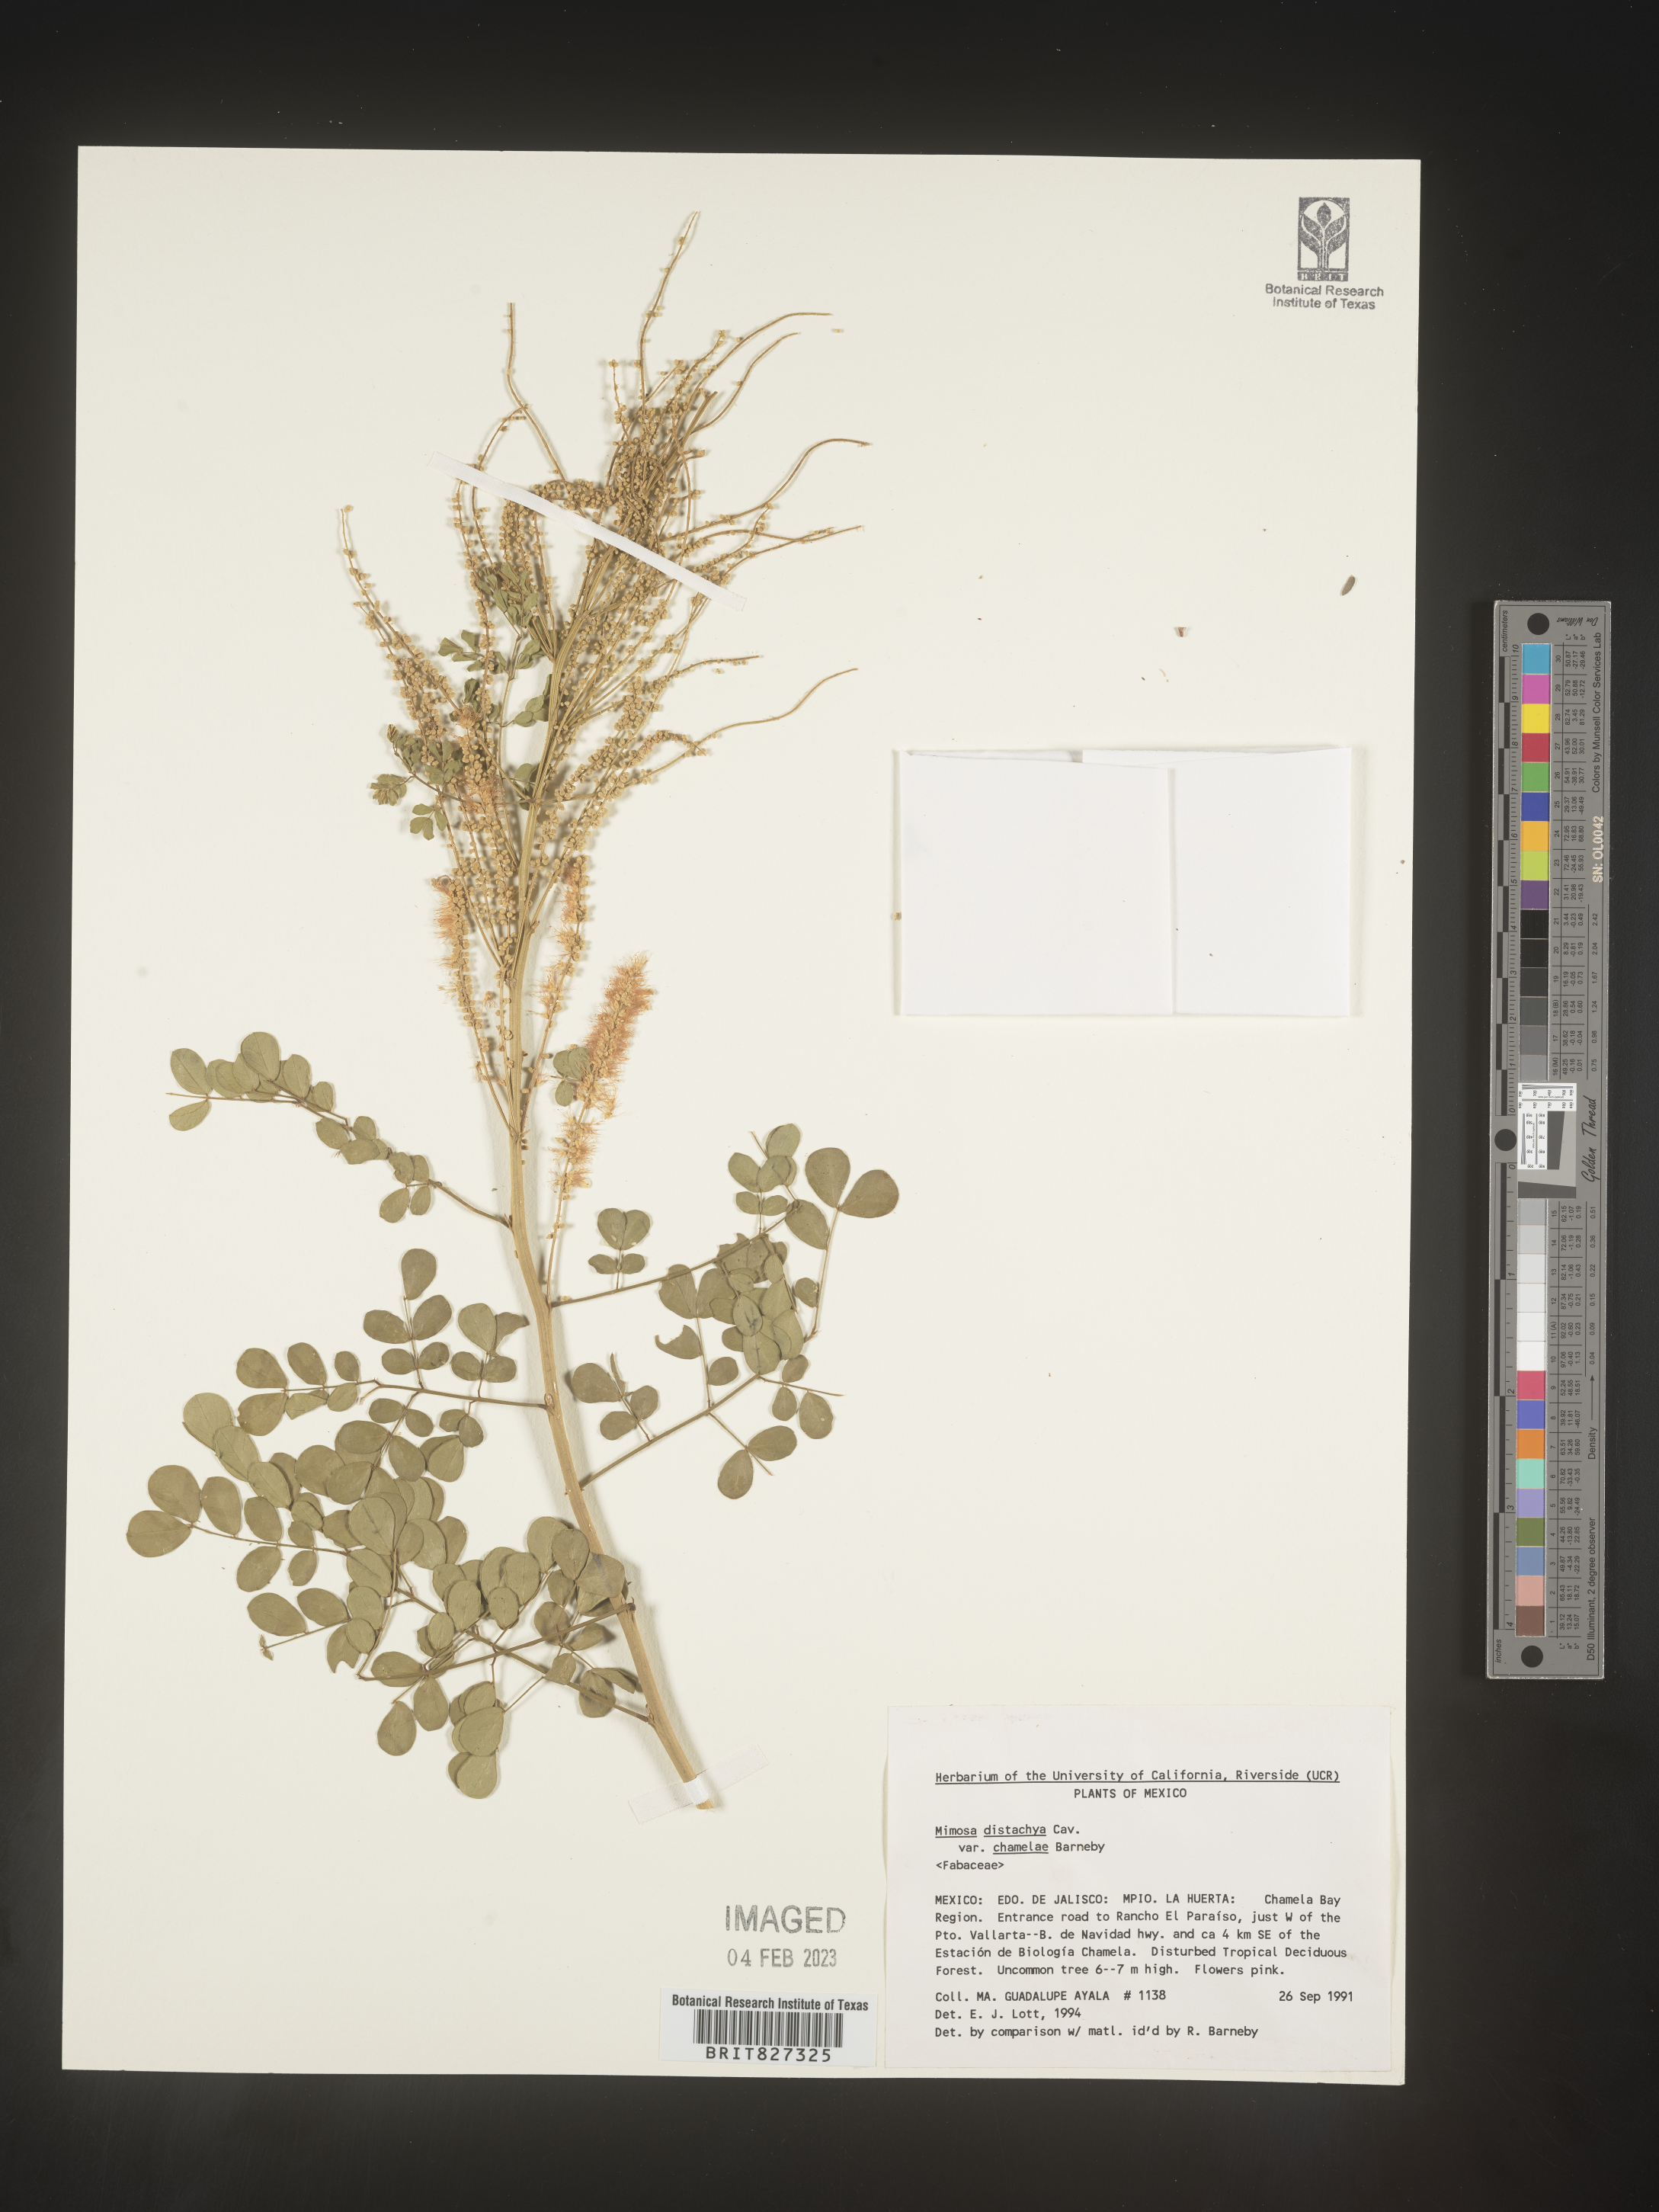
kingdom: Plantae
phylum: Tracheophyta
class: Magnoliopsida
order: Fabales
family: Fabaceae
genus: Mimosa
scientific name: Mimosa
